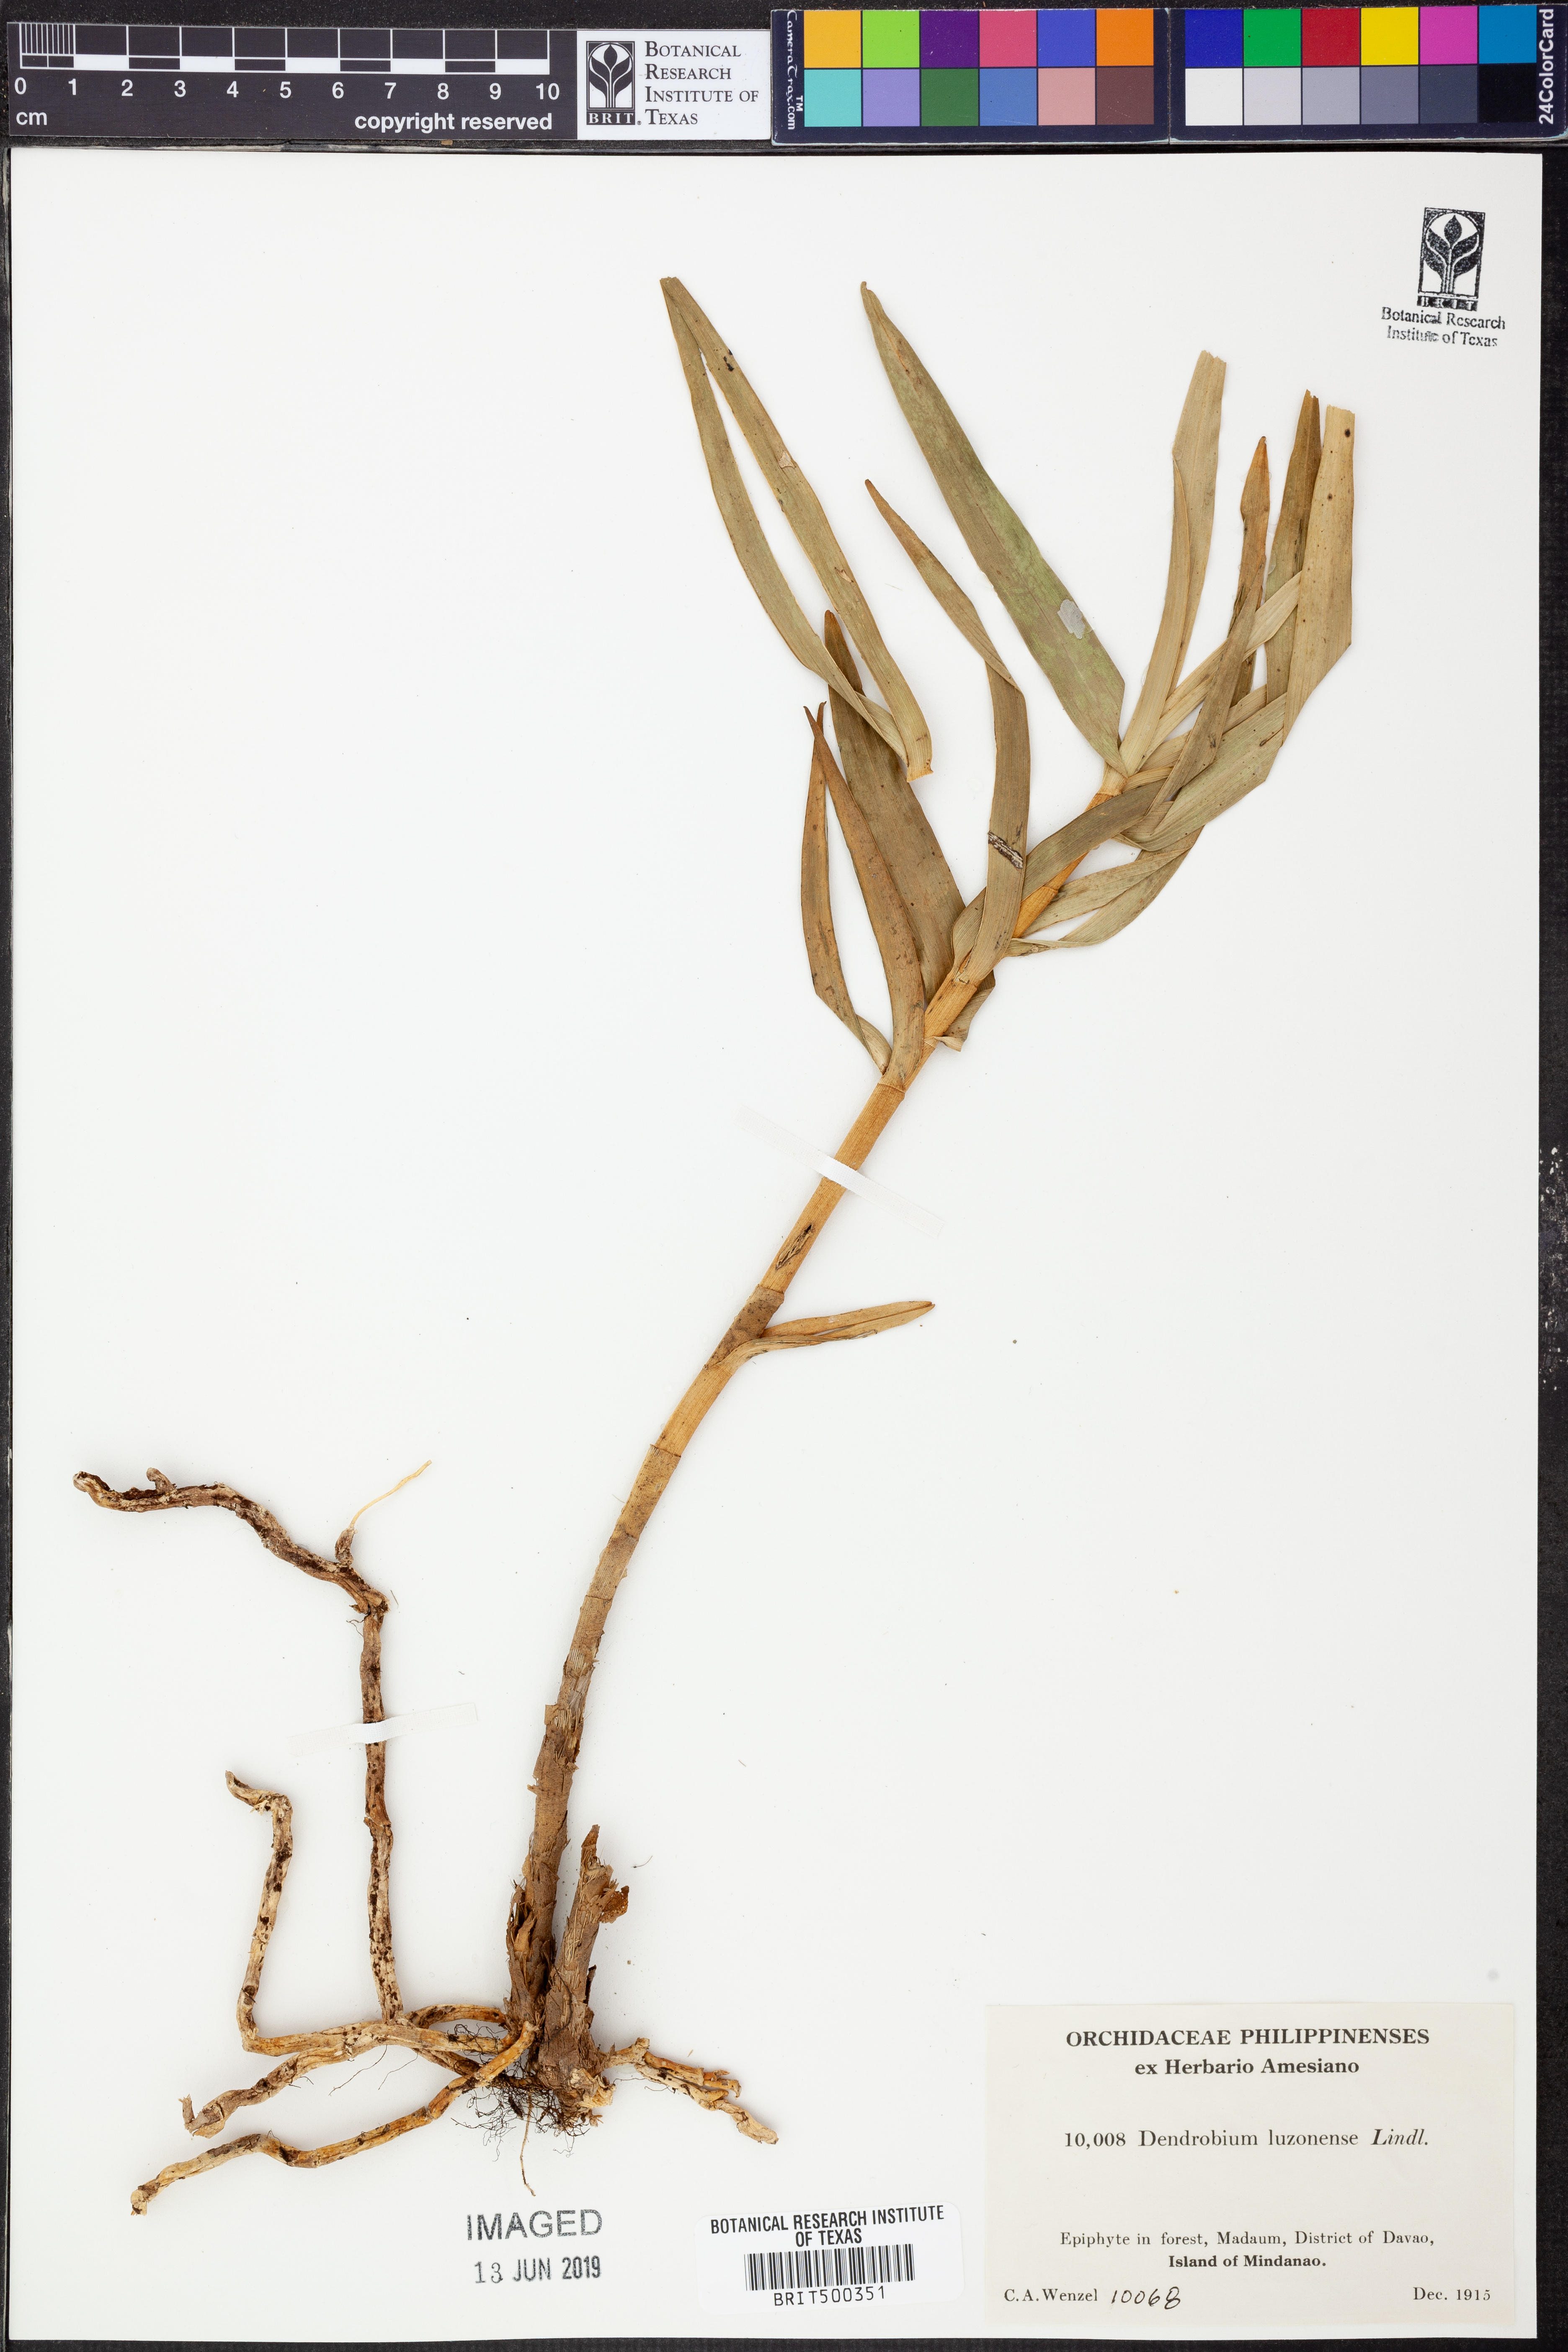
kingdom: Plantae
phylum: Tracheophyta
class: Liliopsida
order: Asparagales
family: Orchidaceae
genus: Dendrobium
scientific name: Dendrobium luzonense
